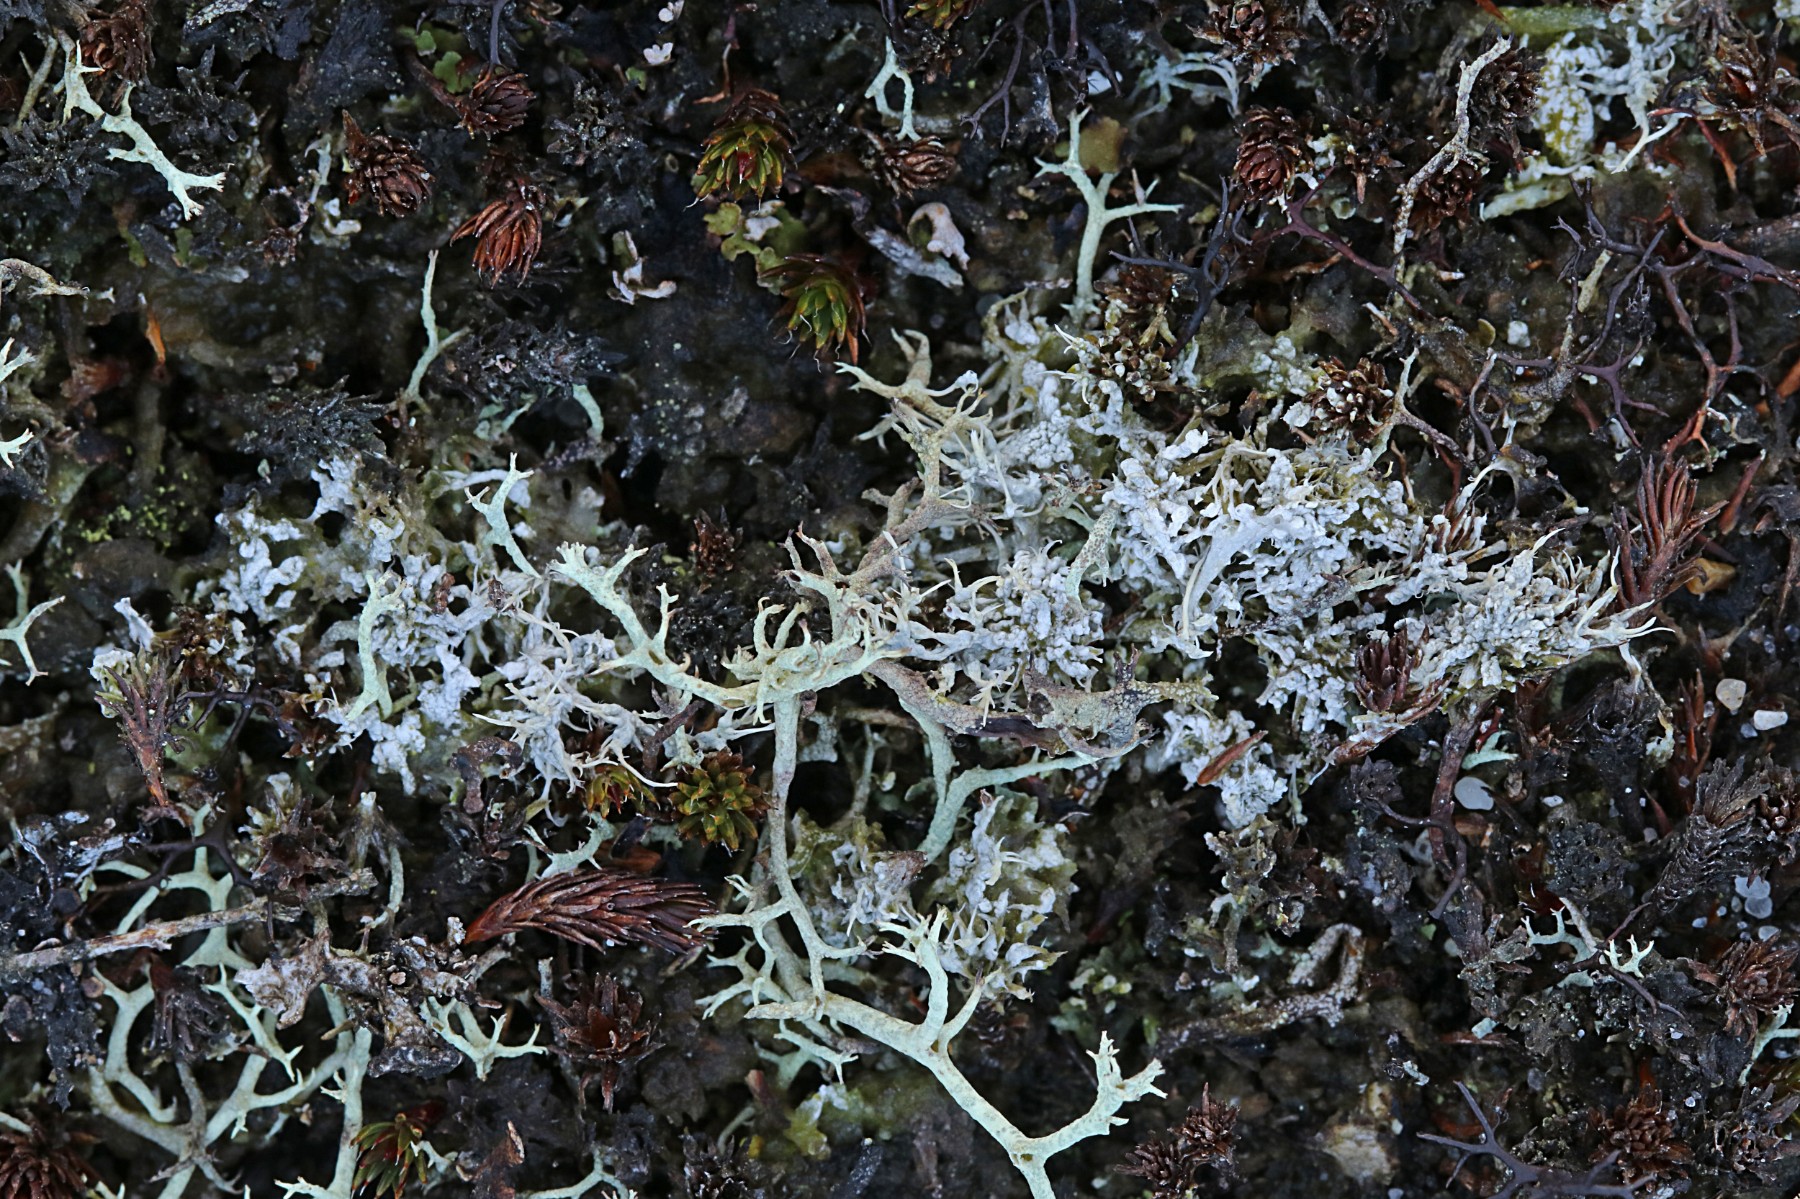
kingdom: Fungi
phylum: Ascomycota
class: Lecanoromycetes
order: Pertusariales
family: Ochrolechiaceae
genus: Ochrolechia
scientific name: Ochrolechia frigida
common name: fjeld-blegskivelav
